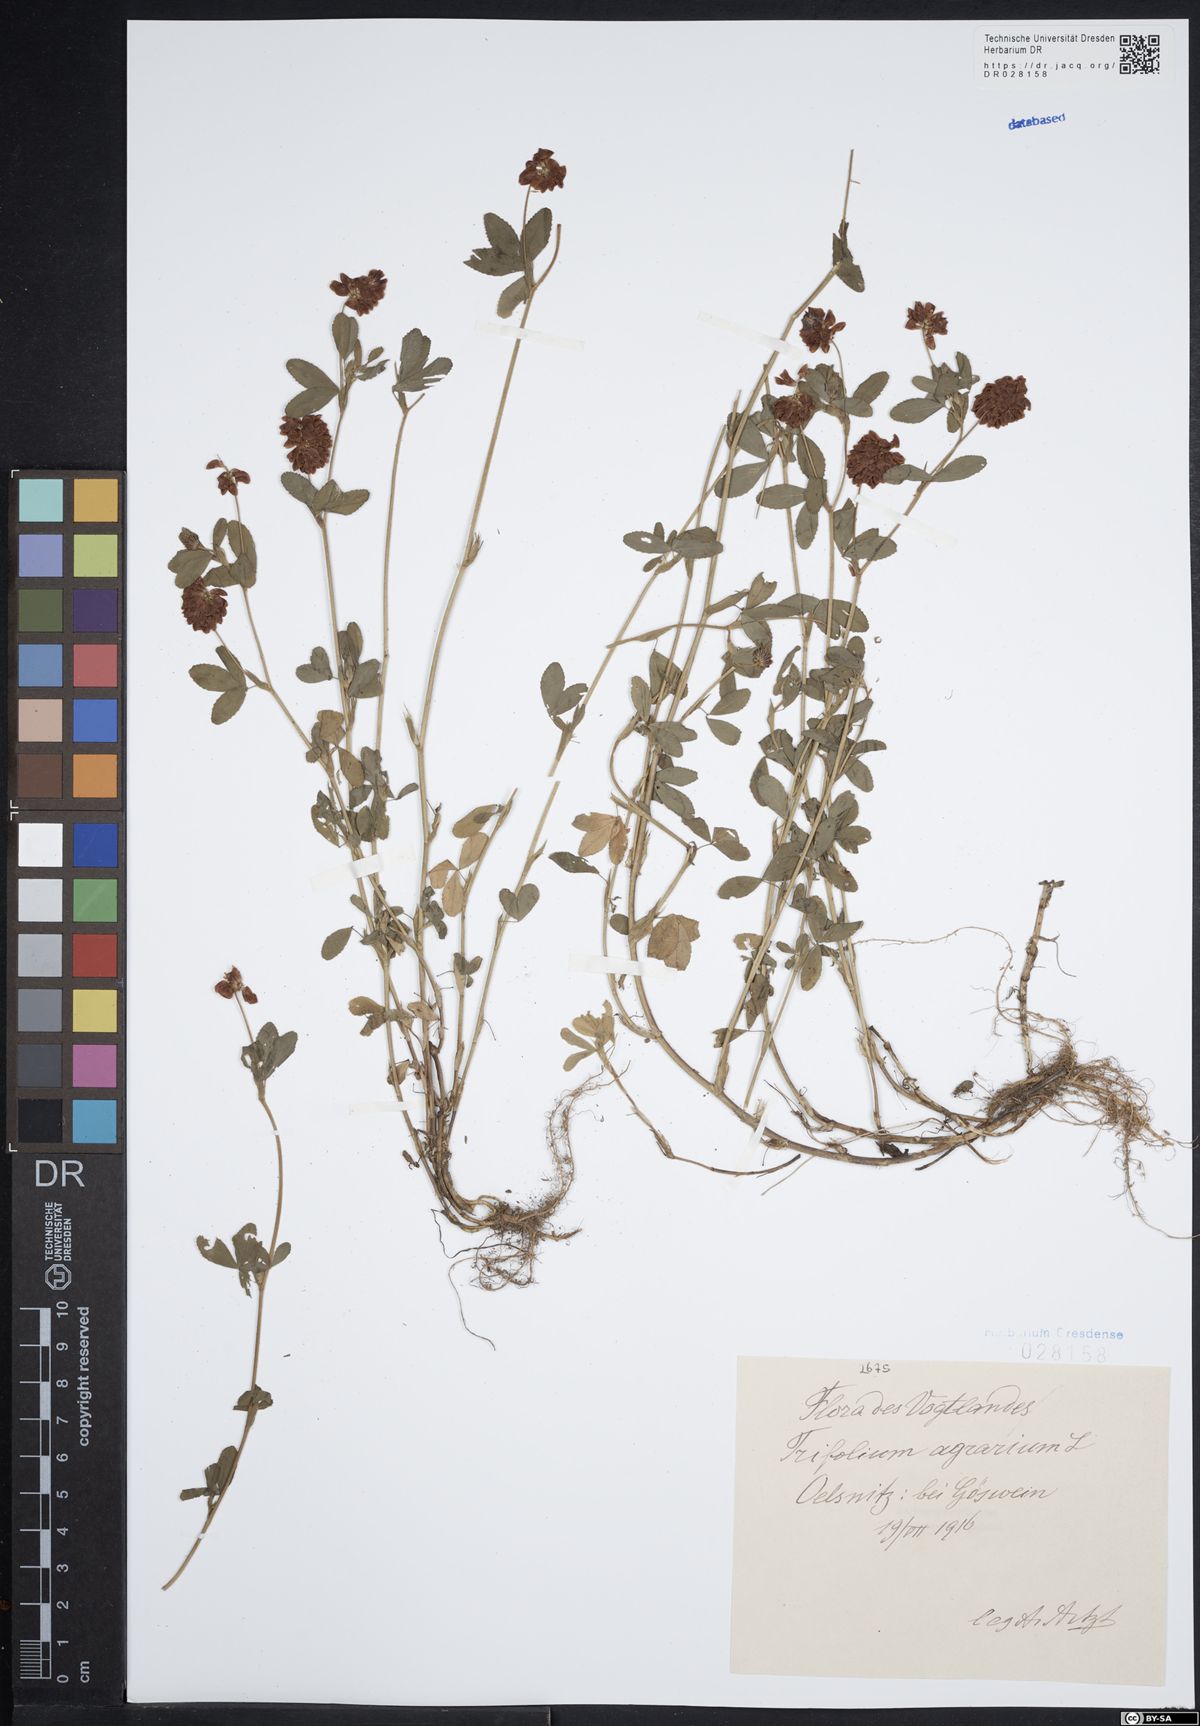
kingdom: Plantae
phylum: Tracheophyta
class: Magnoliopsida
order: Fabales
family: Fabaceae
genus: Trifolium
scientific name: Trifolium aureum
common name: Golden clover
